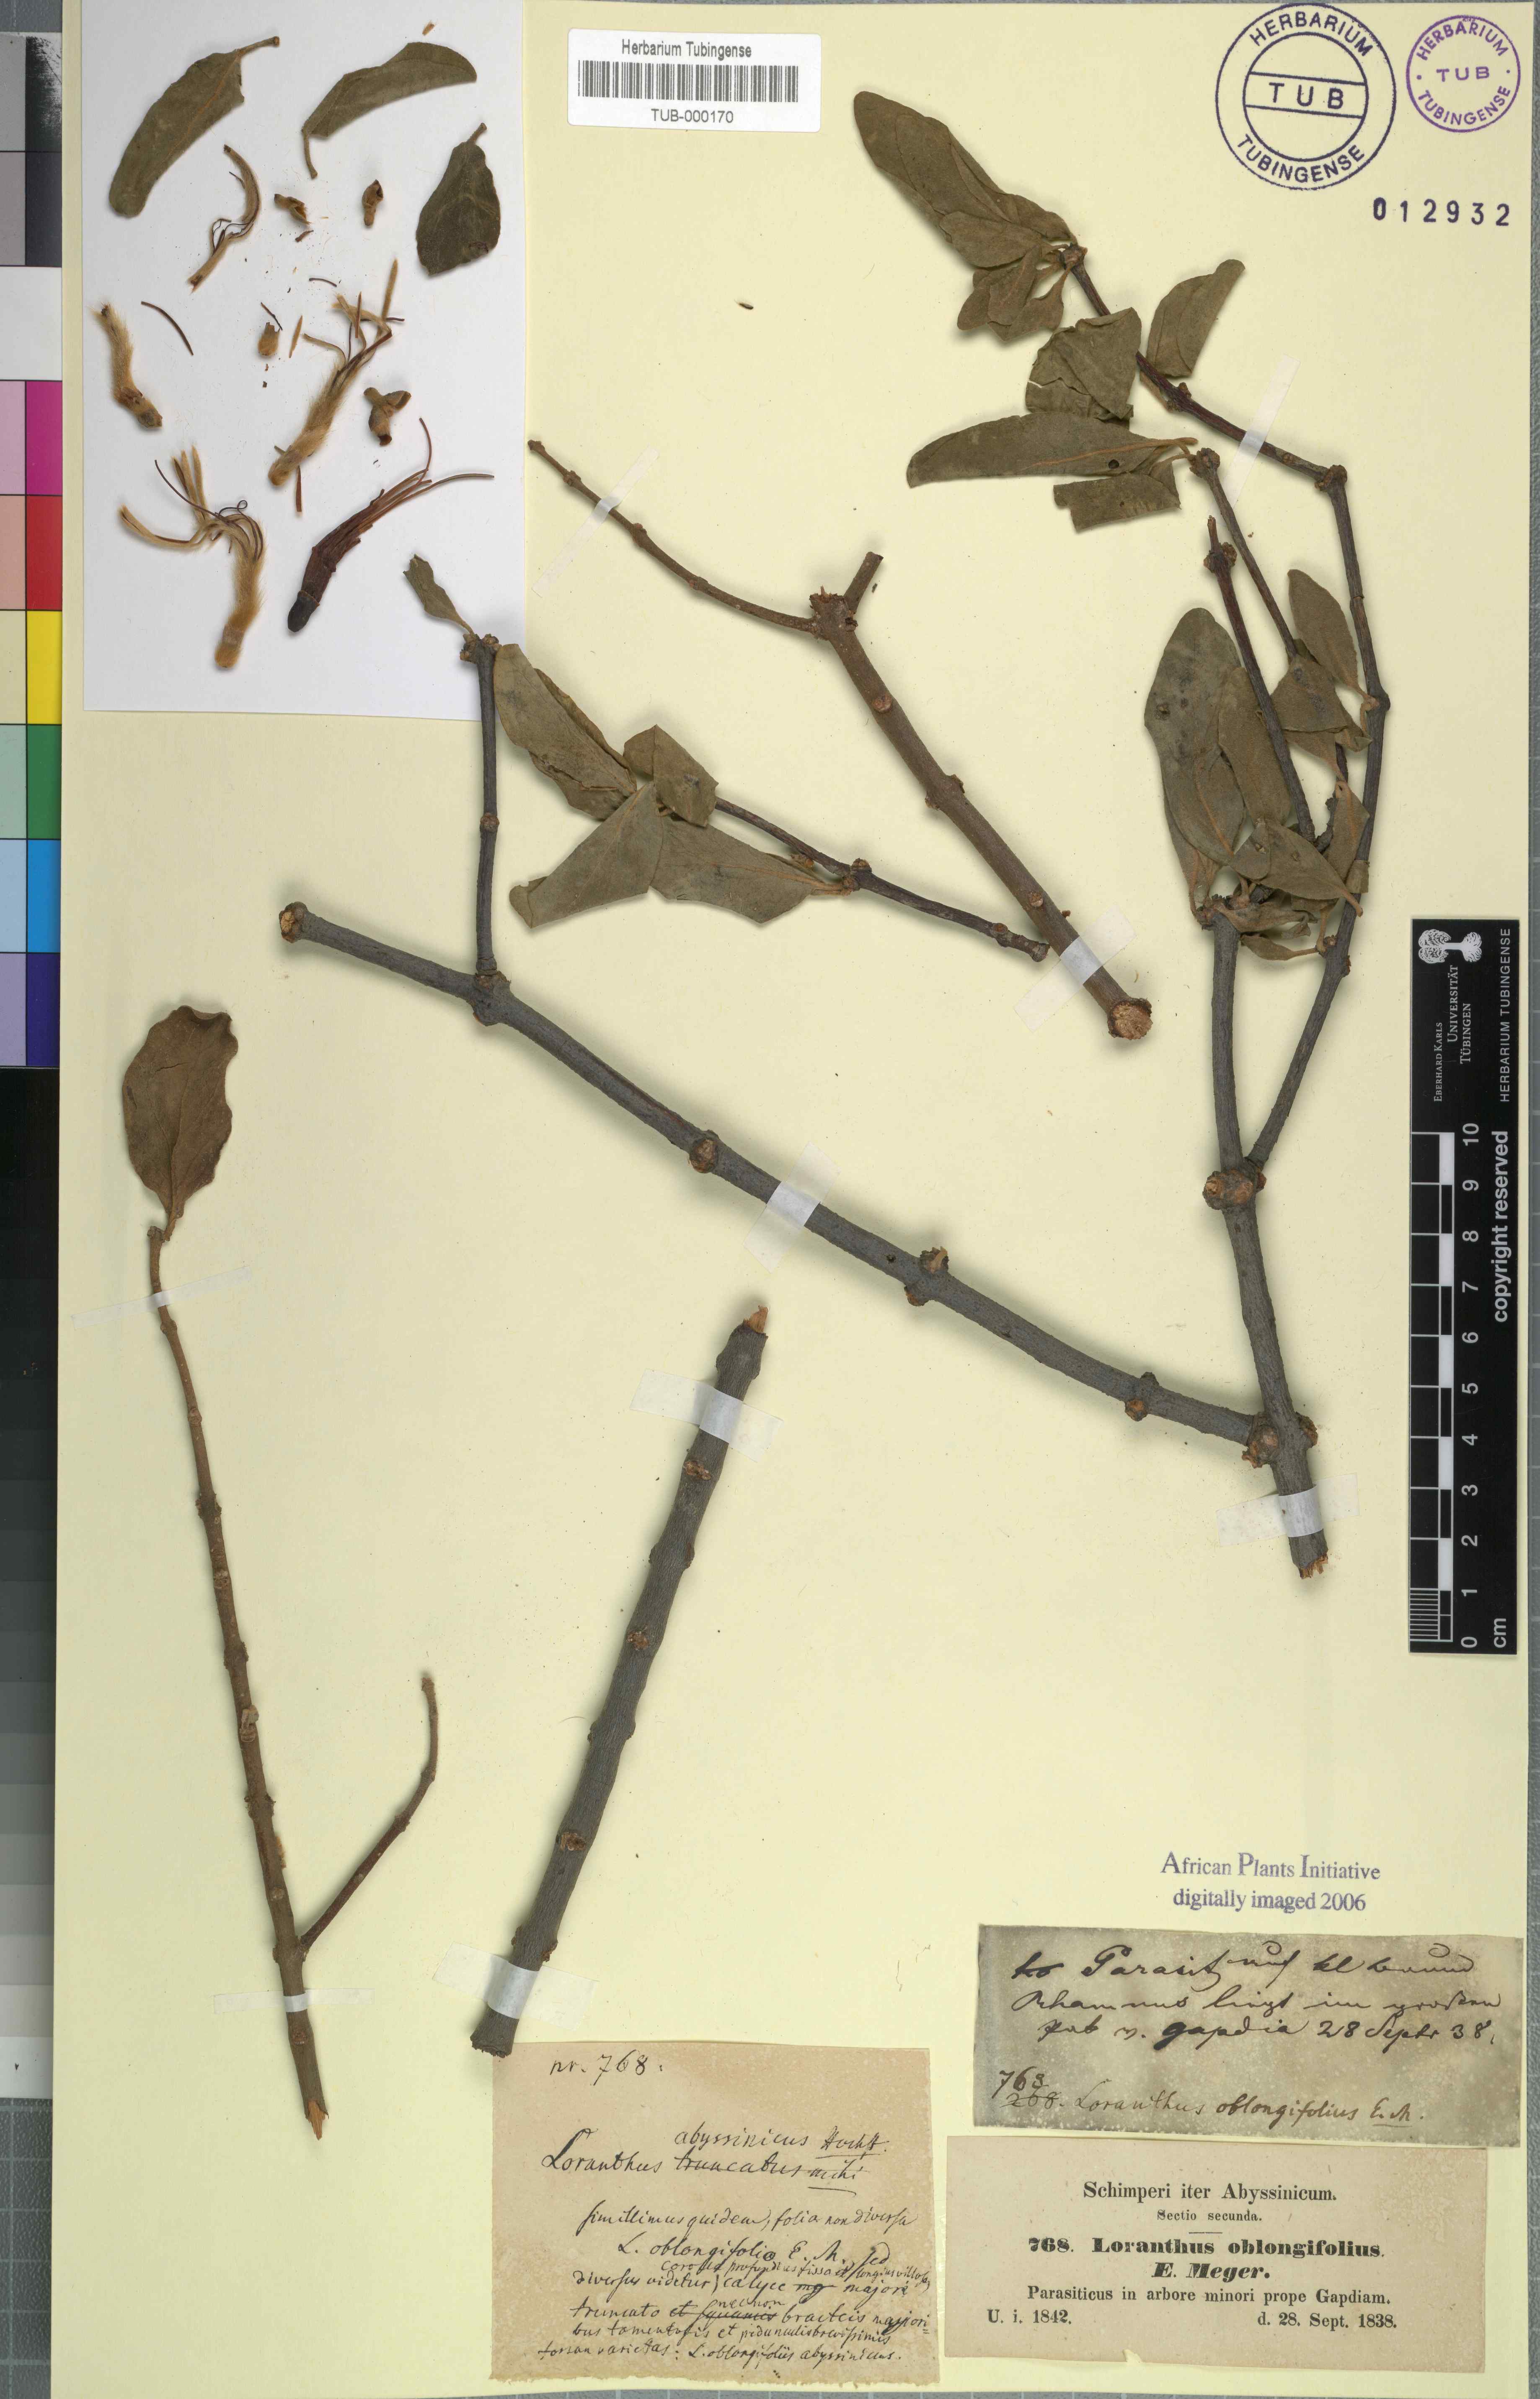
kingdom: Plantae
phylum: Tracheophyta
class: Magnoliopsida
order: Santalales
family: Loranthaceae
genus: Tapinanthus
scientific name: Tapinanthus oleifolius
